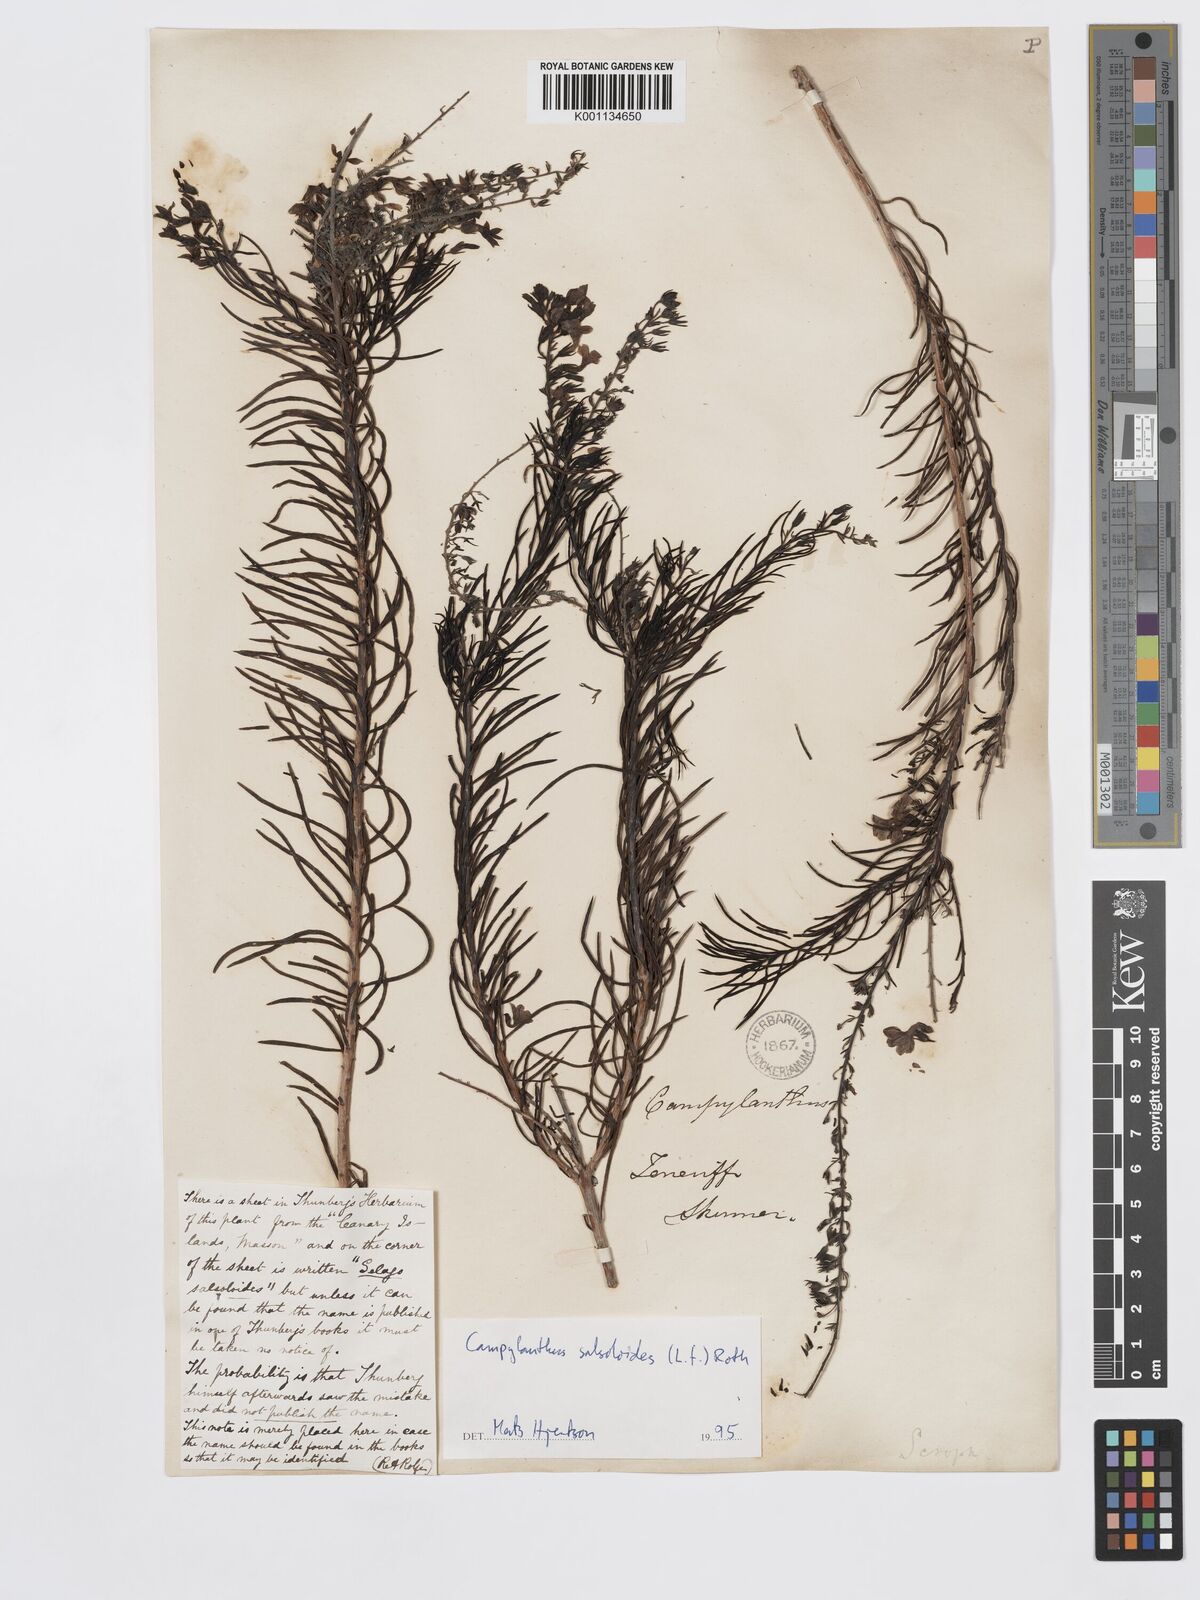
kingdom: Plantae
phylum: Tracheophyta
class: Magnoliopsida
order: Lamiales
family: Plantaginaceae
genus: Campylanthus
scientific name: Campylanthus
